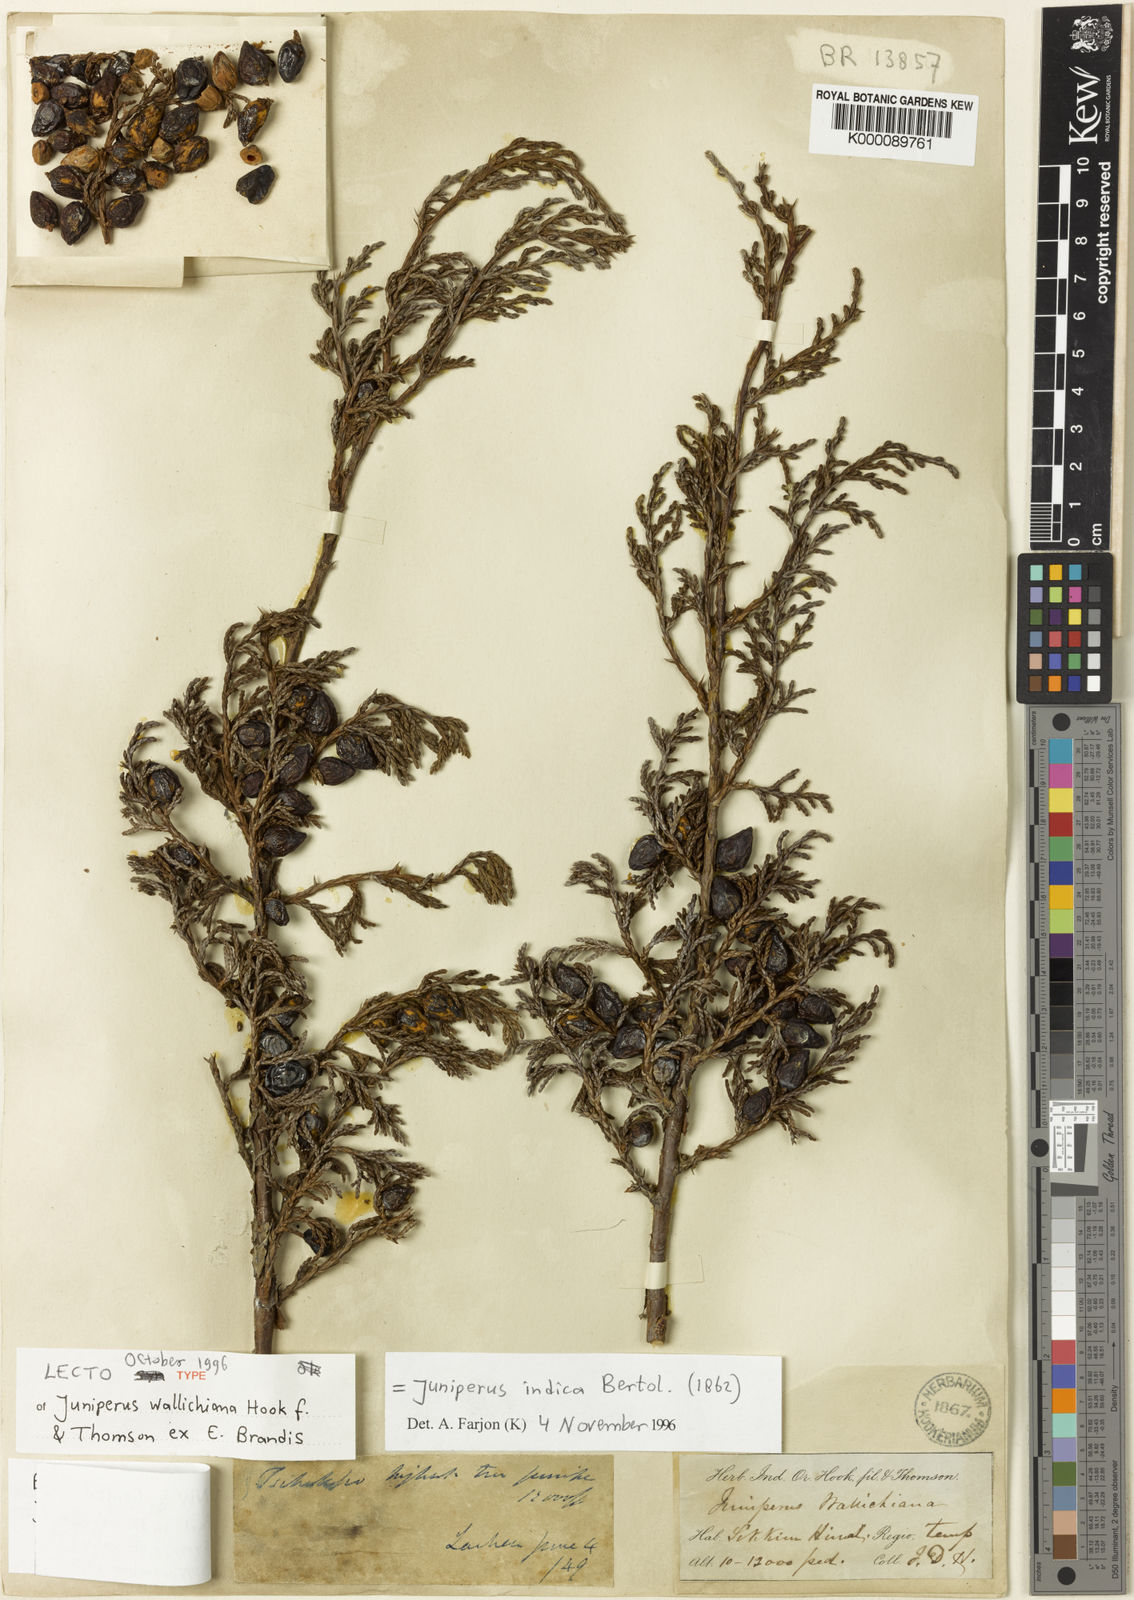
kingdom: Plantae
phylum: Tracheophyta
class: Pinopsida
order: Pinales
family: Cupressaceae
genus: Juniperus
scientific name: Juniperus indica
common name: Black juniper
